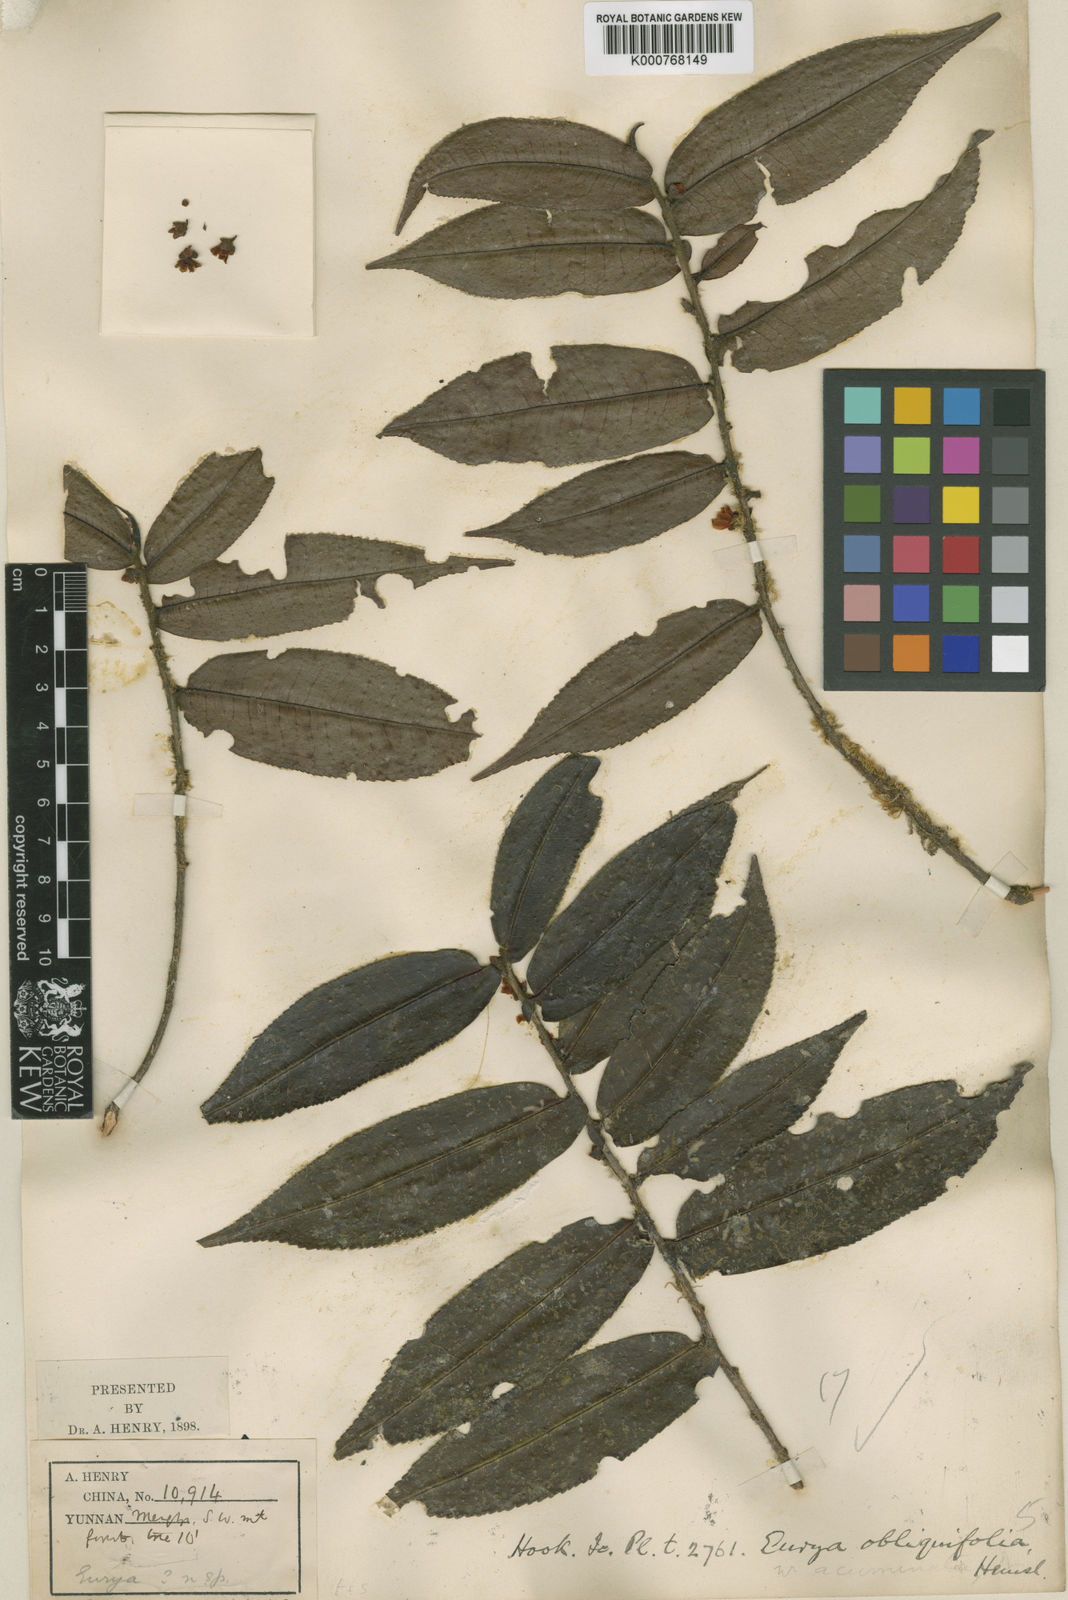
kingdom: Plantae
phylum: Tracheophyta
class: Magnoliopsida
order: Ericales
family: Pentaphylacaceae
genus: Eurya
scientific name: Eurya
